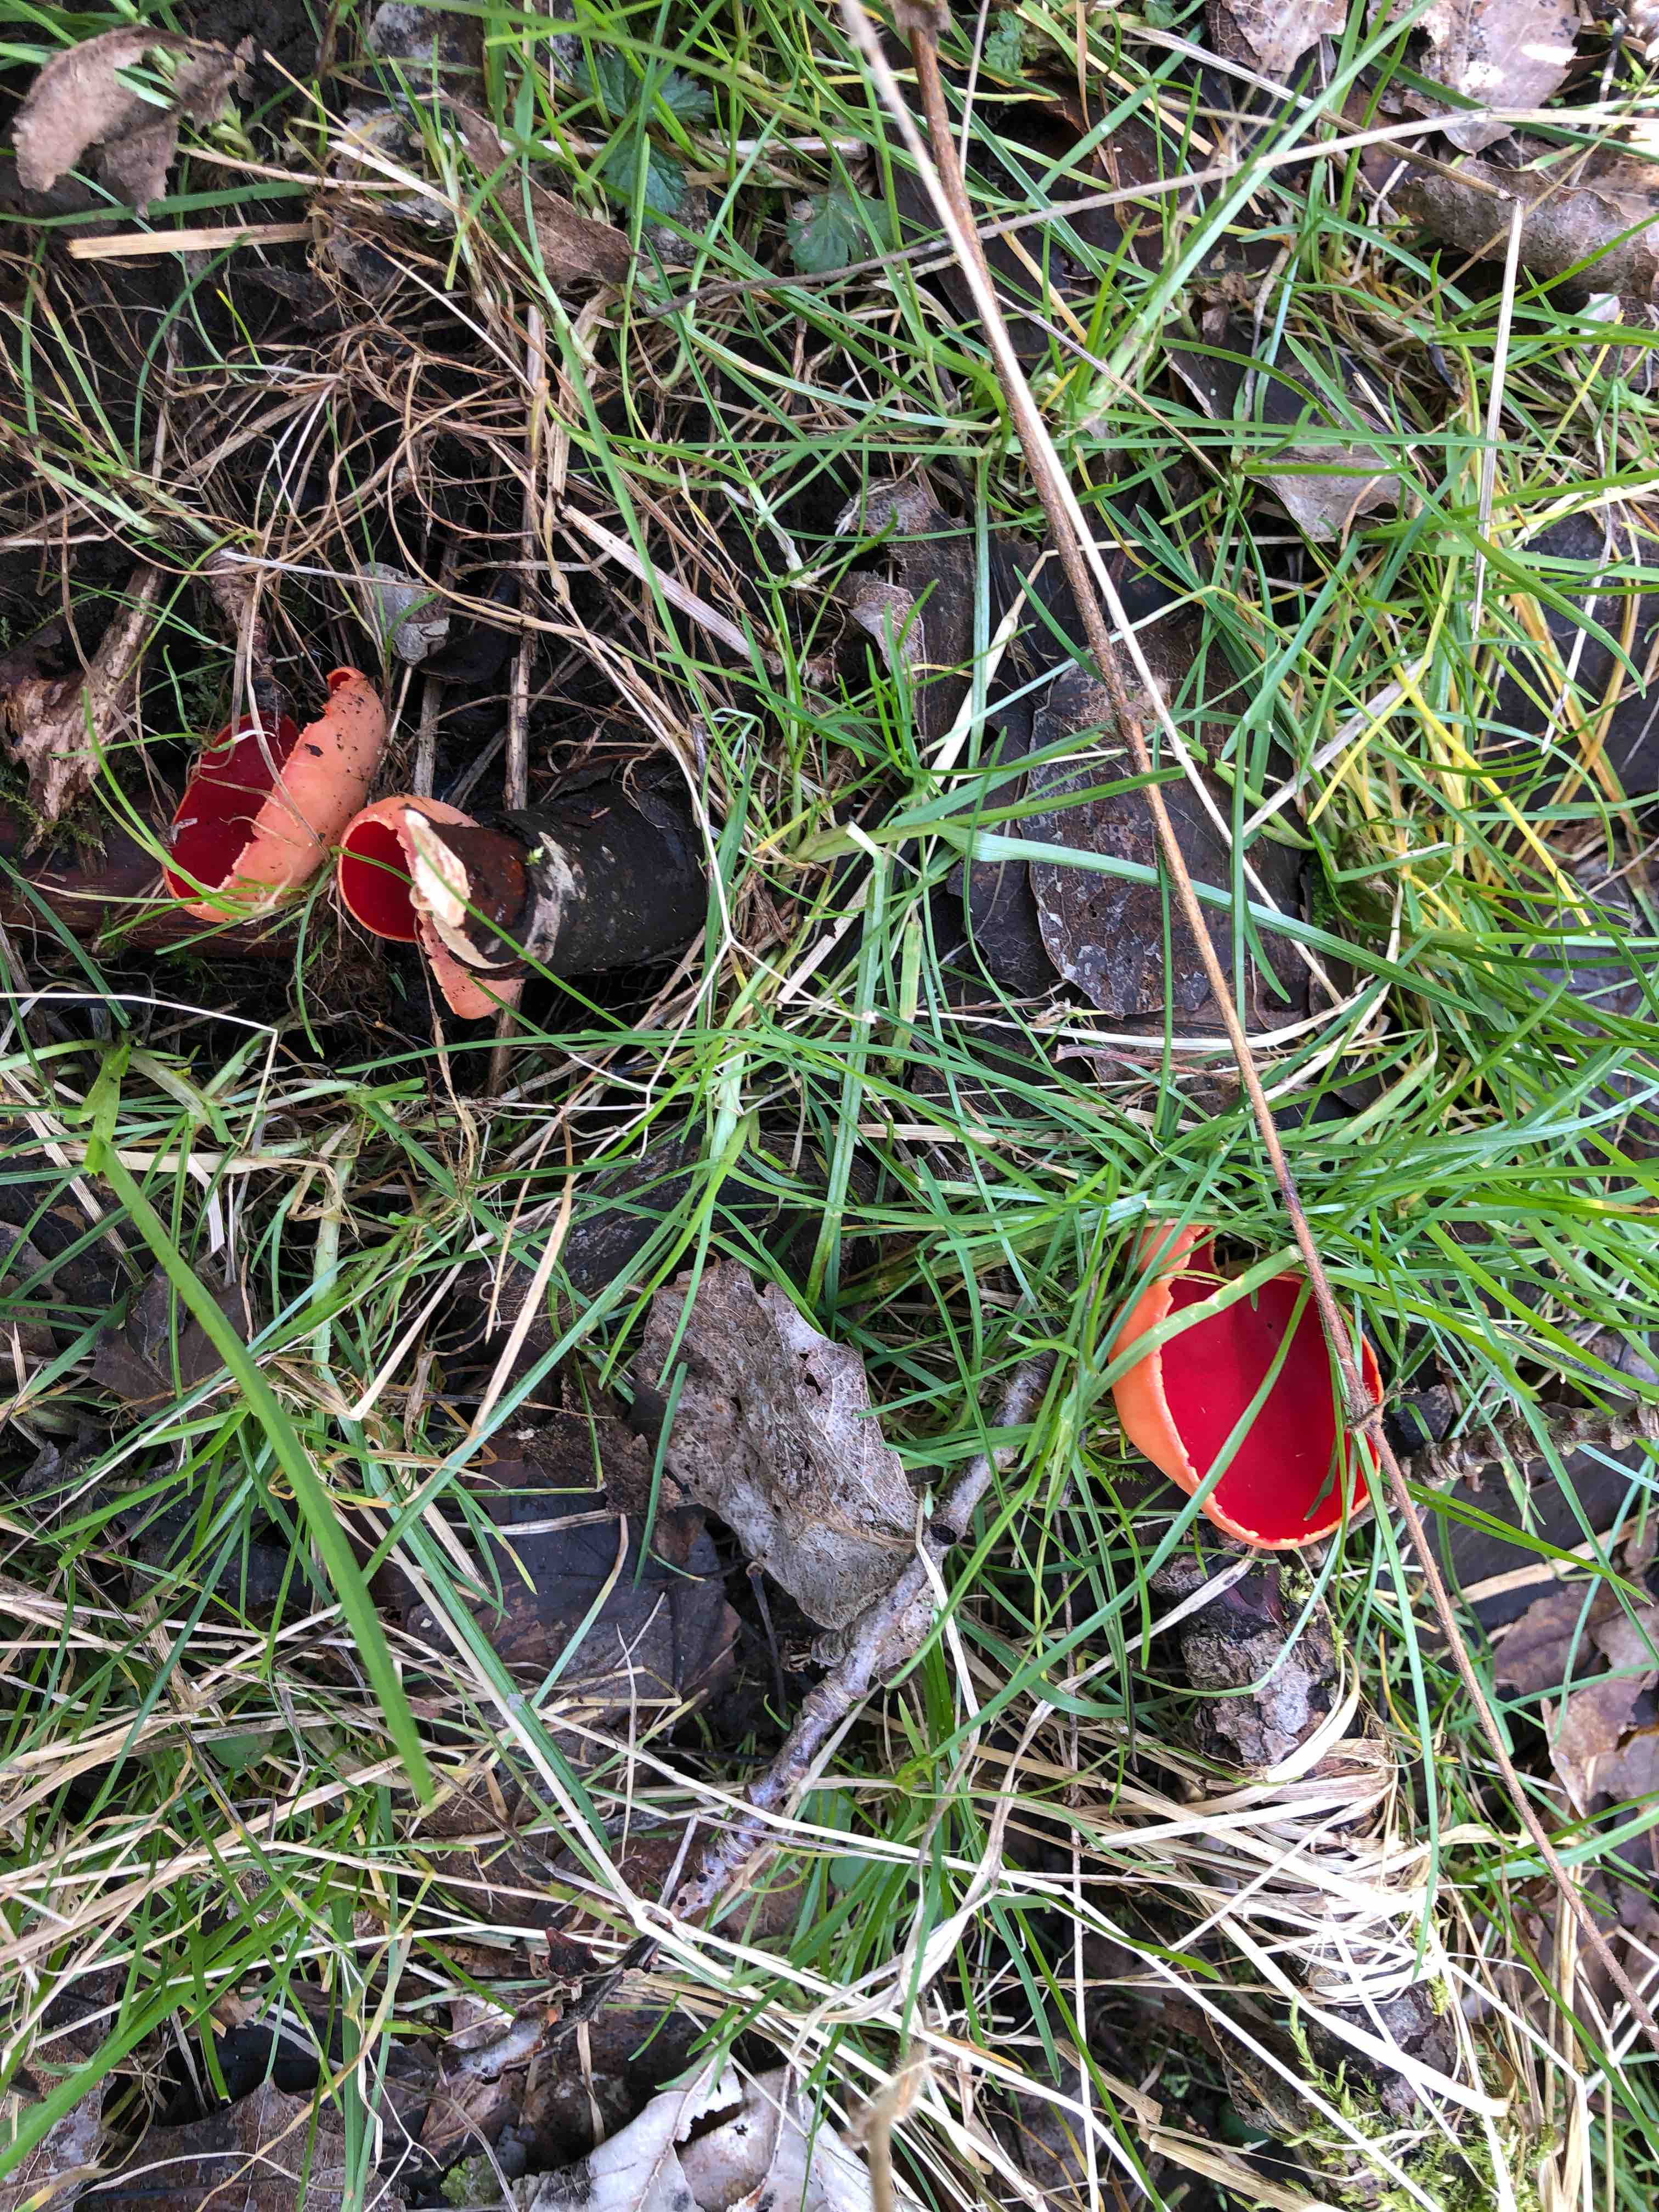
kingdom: Fungi
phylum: Ascomycota
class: Pezizomycetes
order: Pezizales
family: Sarcoscyphaceae
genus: Sarcoscypha
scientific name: Sarcoscypha austriaca
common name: krølhåret pragtbæger
